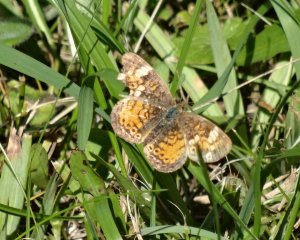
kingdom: Animalia
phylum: Arthropoda
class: Insecta
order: Lepidoptera
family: Nymphalidae
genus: Phyciodes
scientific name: Phyciodes tharos
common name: Northern Crescent
